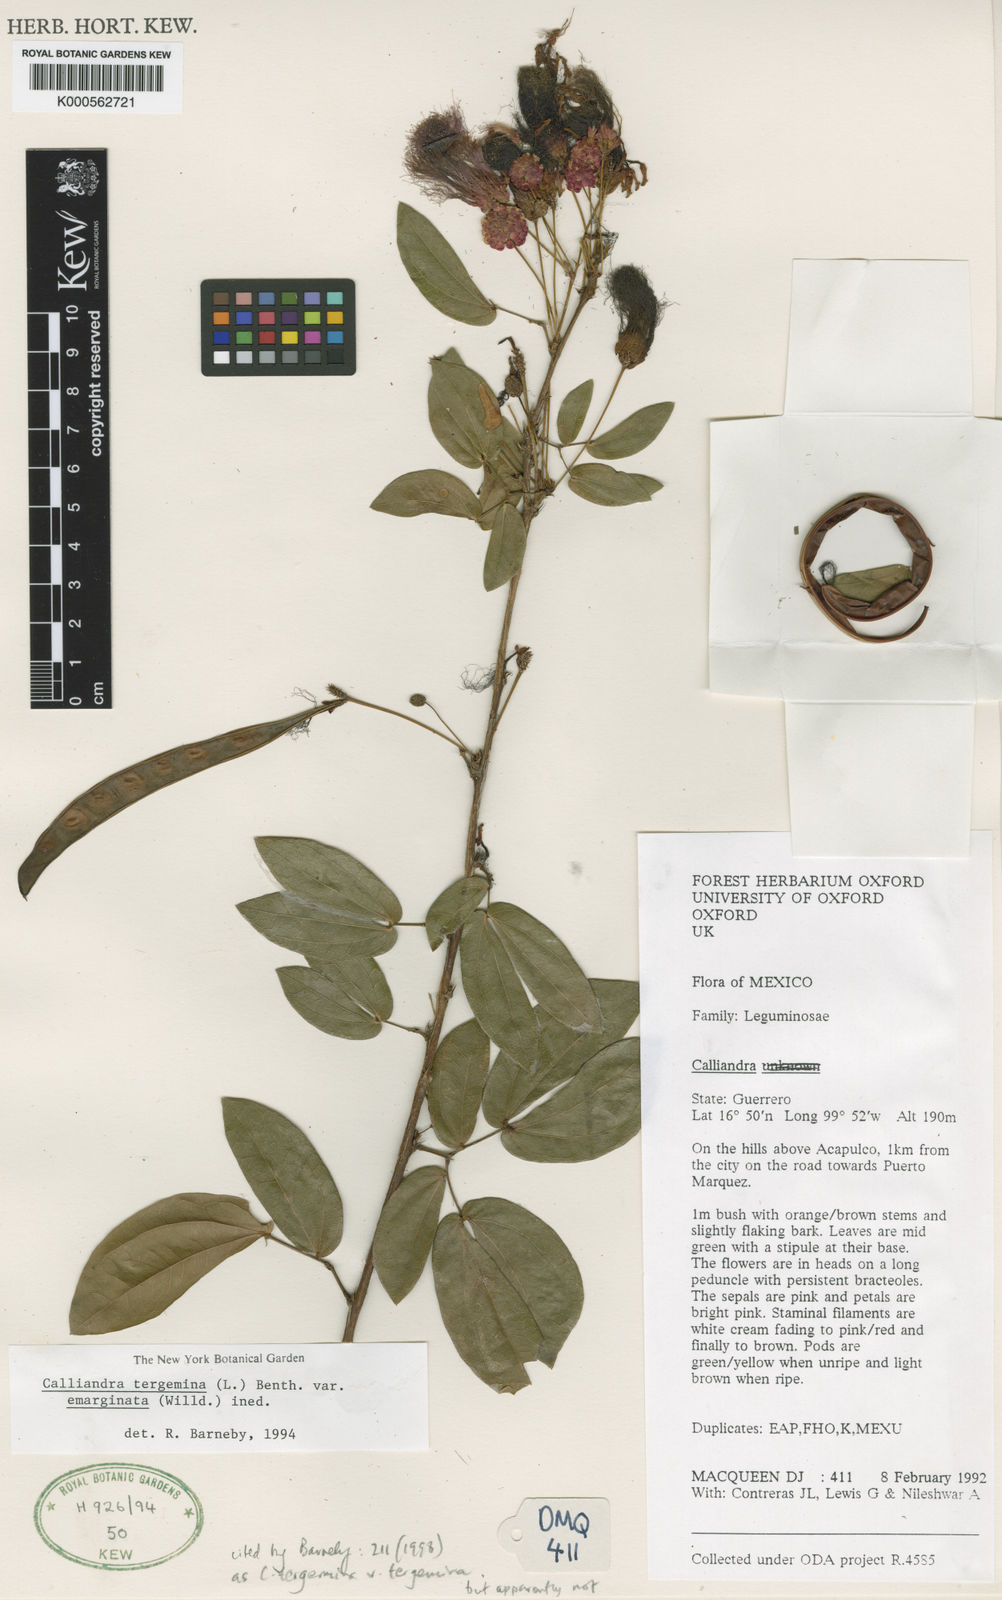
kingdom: Plantae
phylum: Tracheophyta
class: Magnoliopsida
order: Fabales
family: Fabaceae
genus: Calliandra
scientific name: Calliandra tergemina
